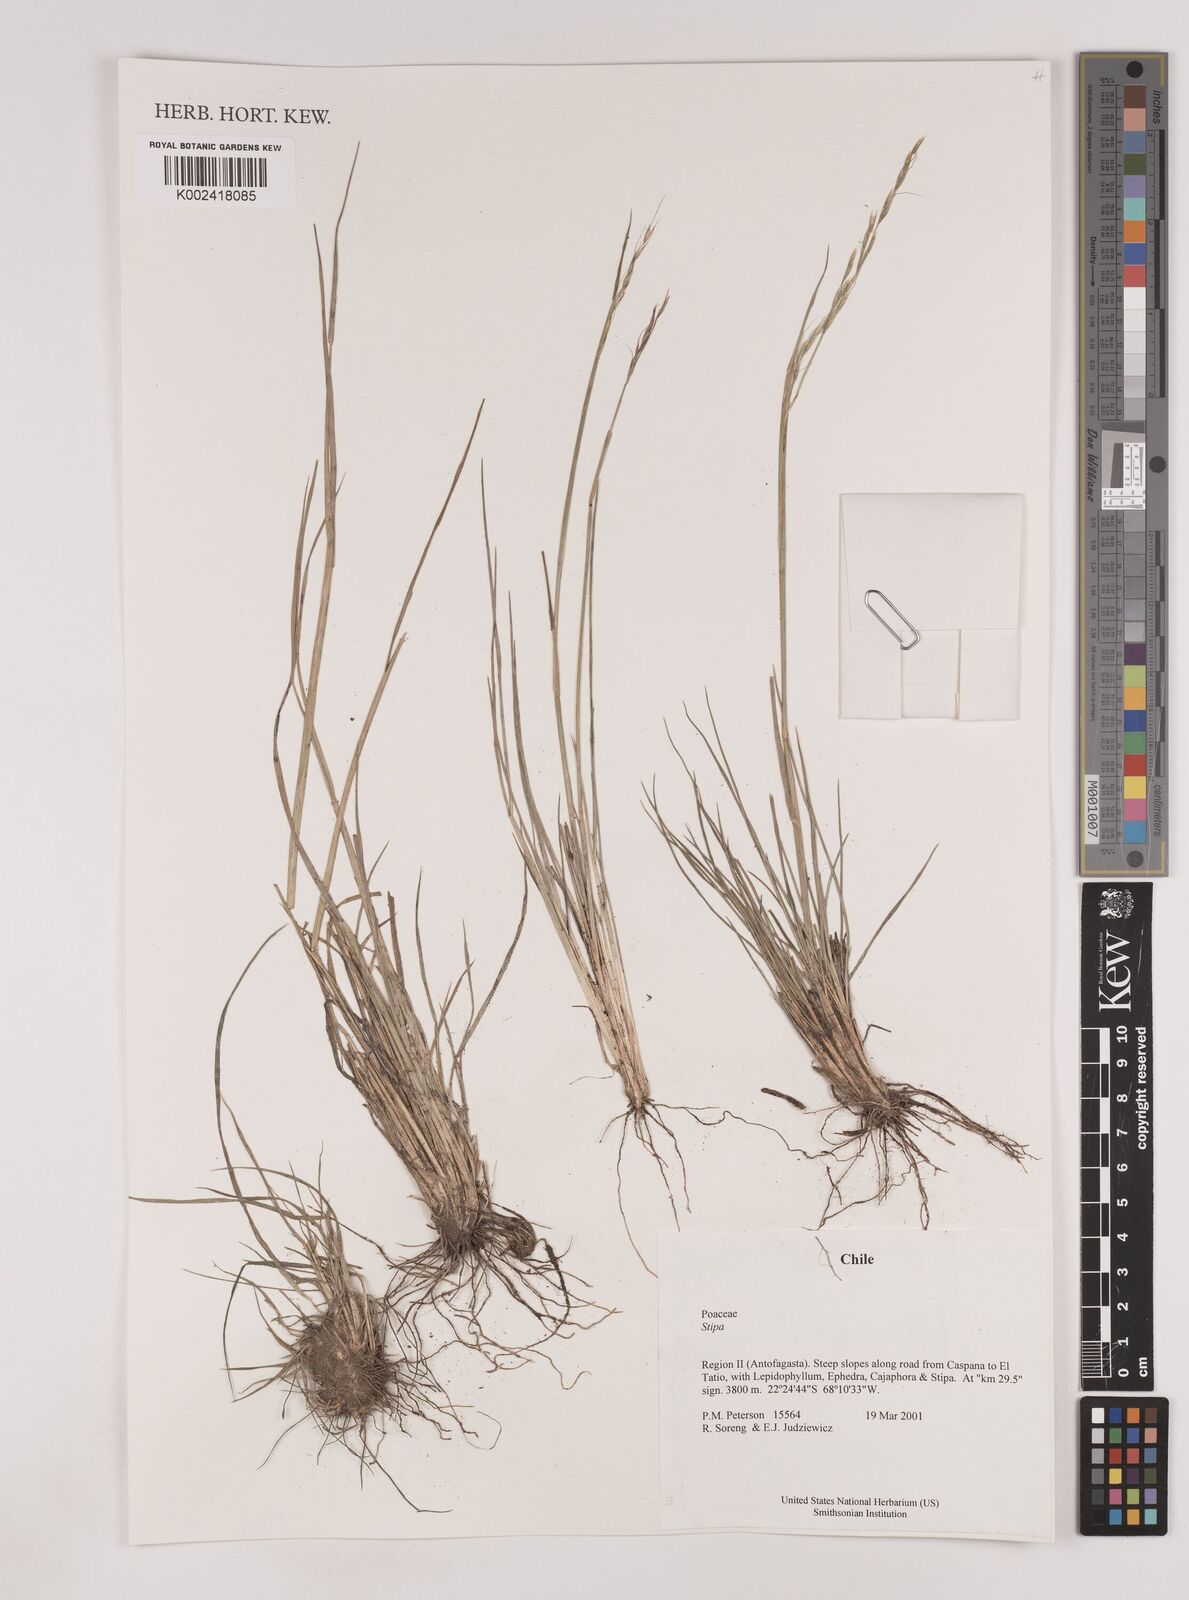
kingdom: Plantae
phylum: Tracheophyta
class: Liliopsida
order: Poales
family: Poaceae
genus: Nassella
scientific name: Nassella
